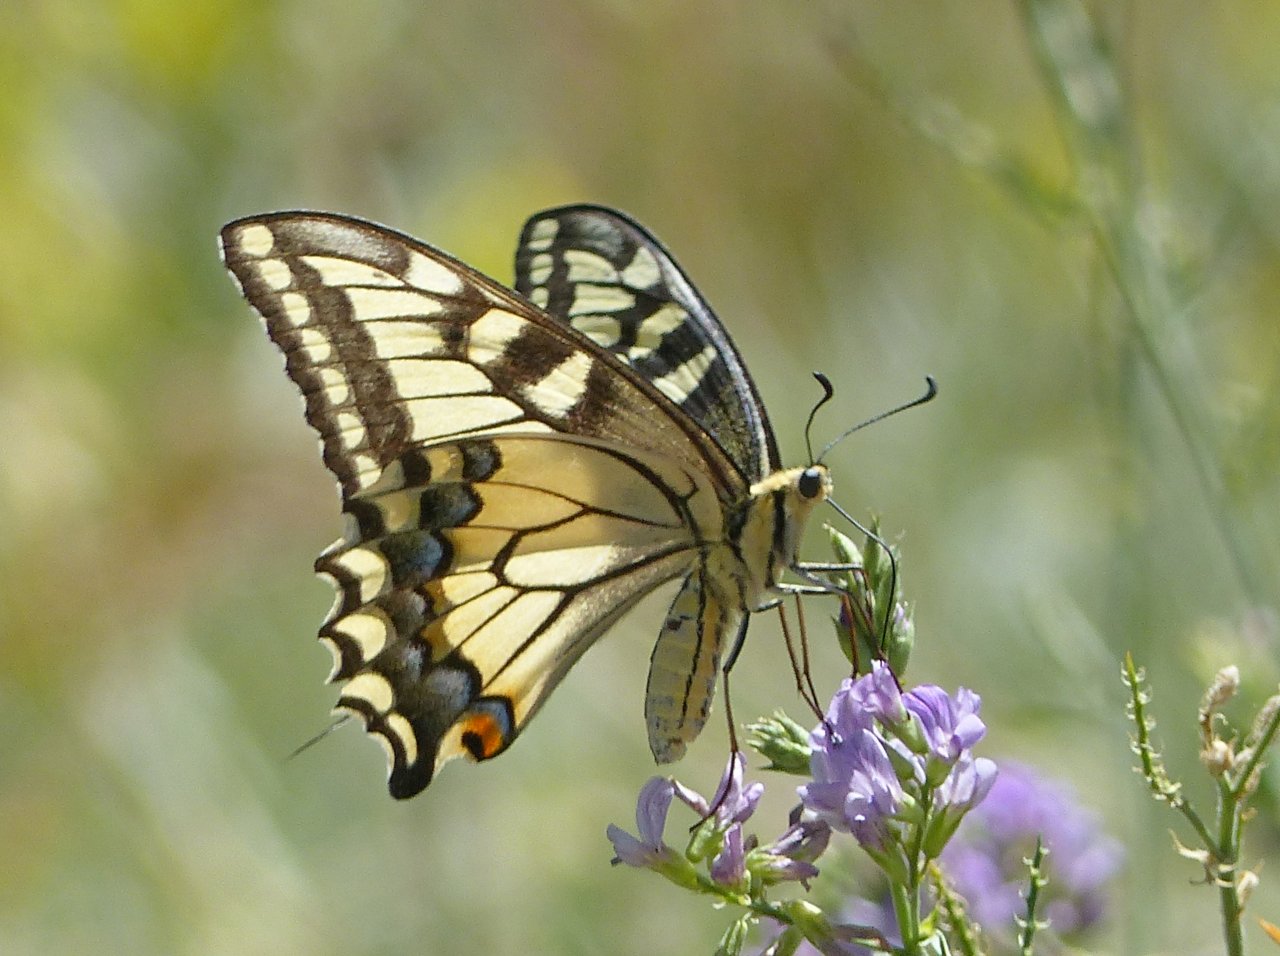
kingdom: Animalia
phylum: Arthropoda
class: Insecta
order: Lepidoptera
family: Papilionidae
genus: Papilio
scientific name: Papilio machaon
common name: Old World Swallowtail
